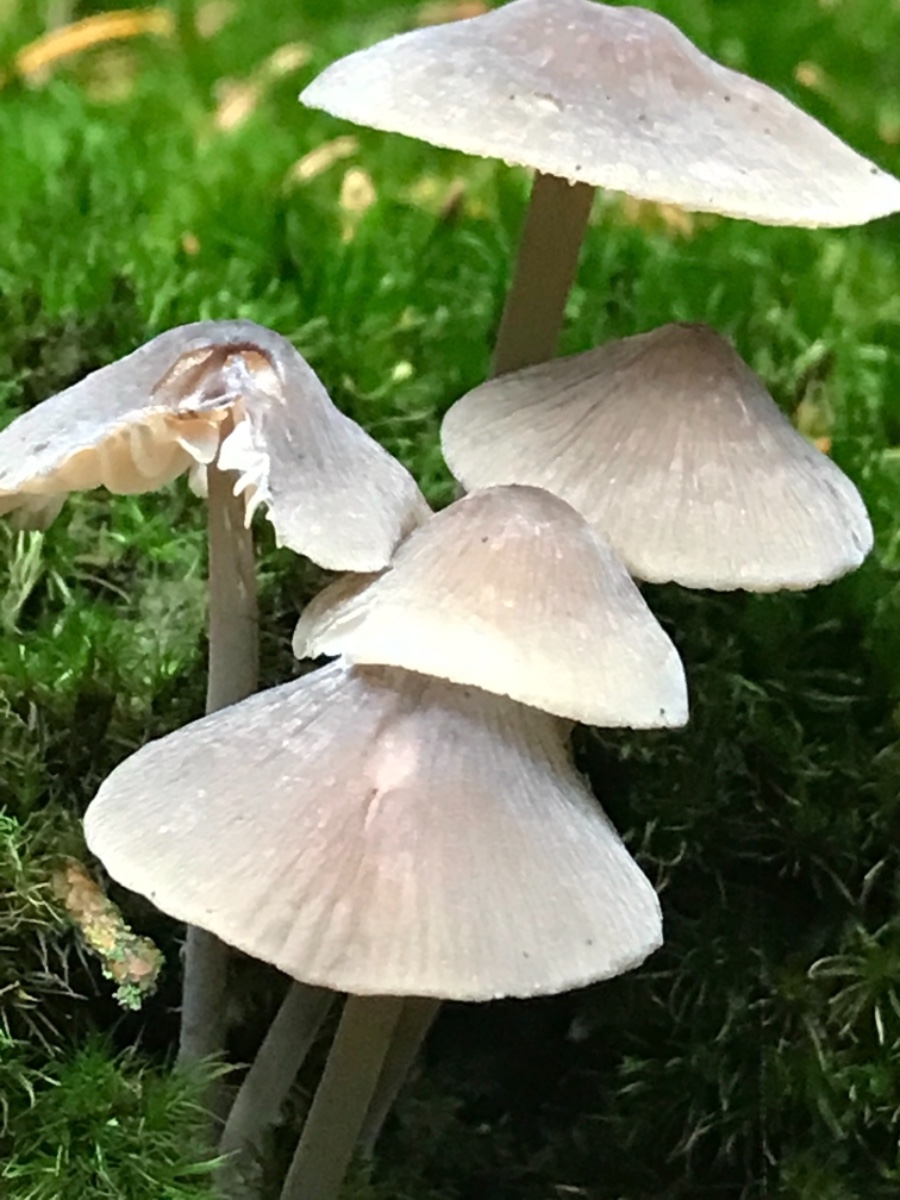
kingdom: Fungi
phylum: Basidiomycota
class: Agaricomycetes
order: Agaricales
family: Mycenaceae
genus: Mycena
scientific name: Mycena
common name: huesvamp
